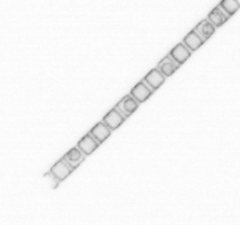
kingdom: Chromista
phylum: Ochrophyta
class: Bacillariophyceae
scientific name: Bacillariophyceae
